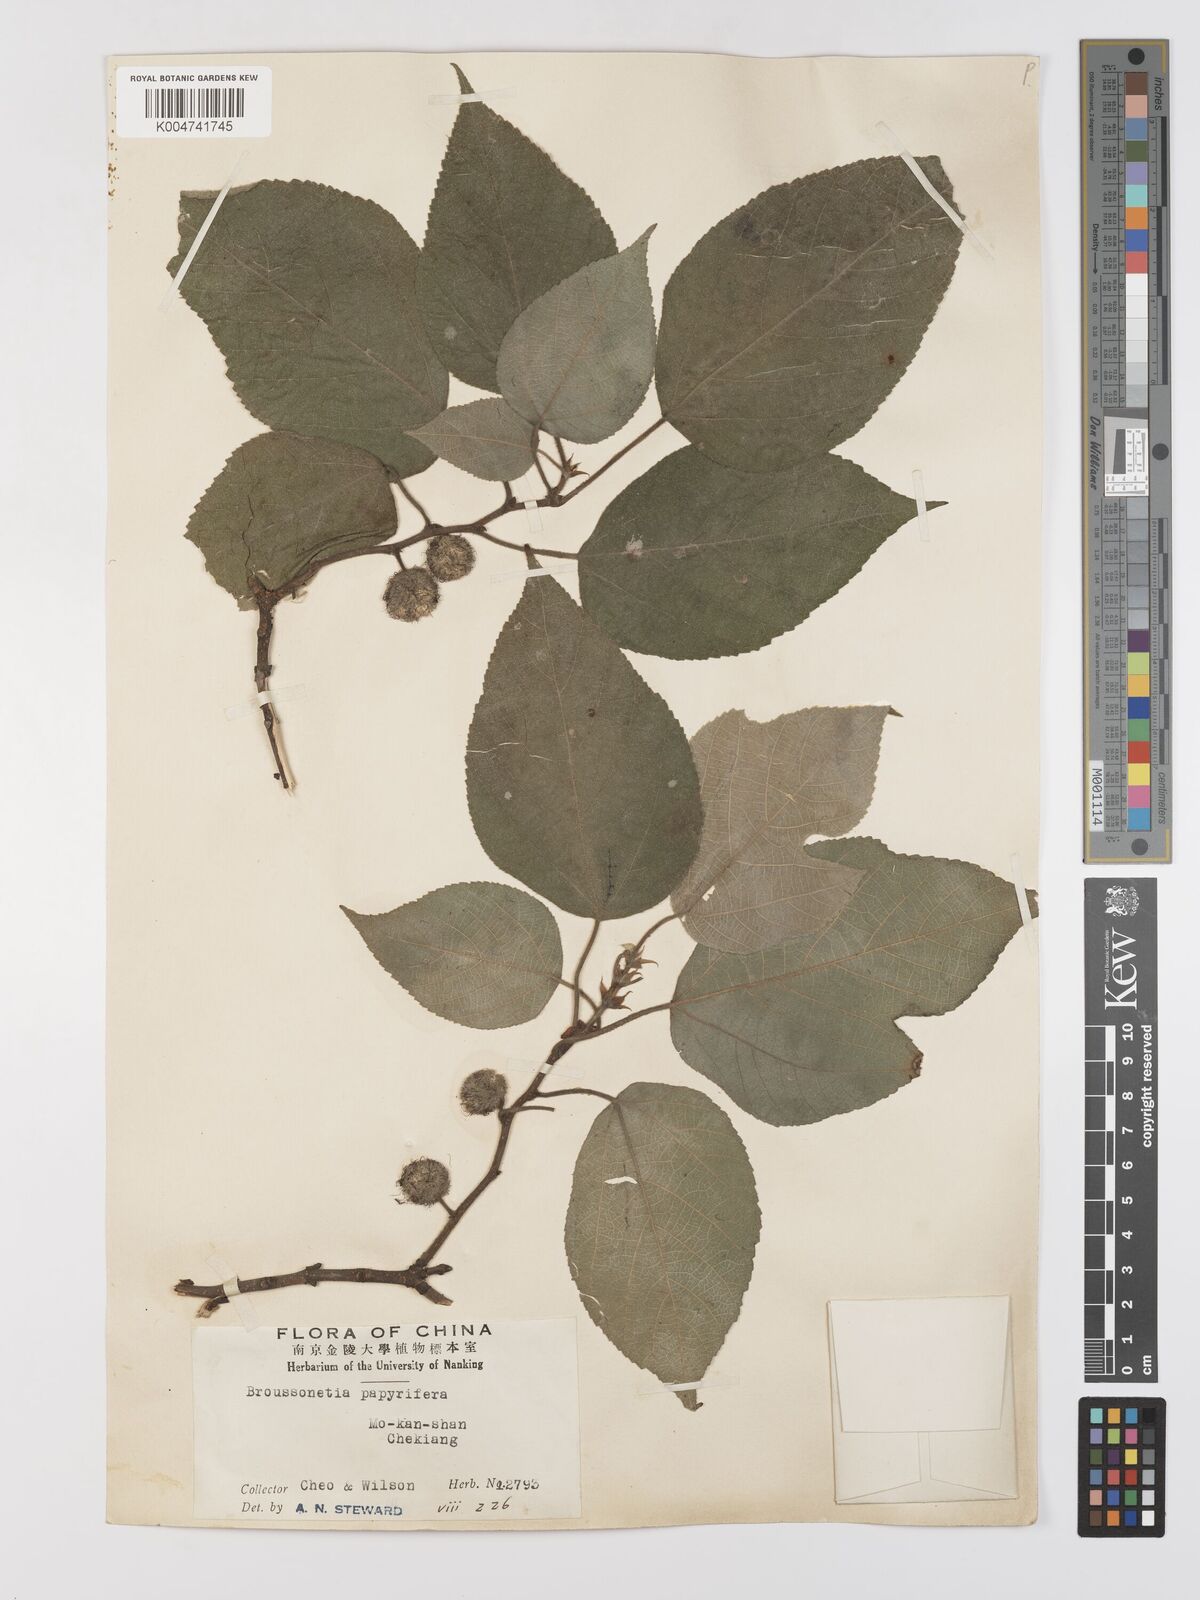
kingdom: Plantae
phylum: Tracheophyta
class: Magnoliopsida
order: Rosales
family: Moraceae
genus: Broussonetia
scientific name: Broussonetia papyrifera
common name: Paper mulberry
